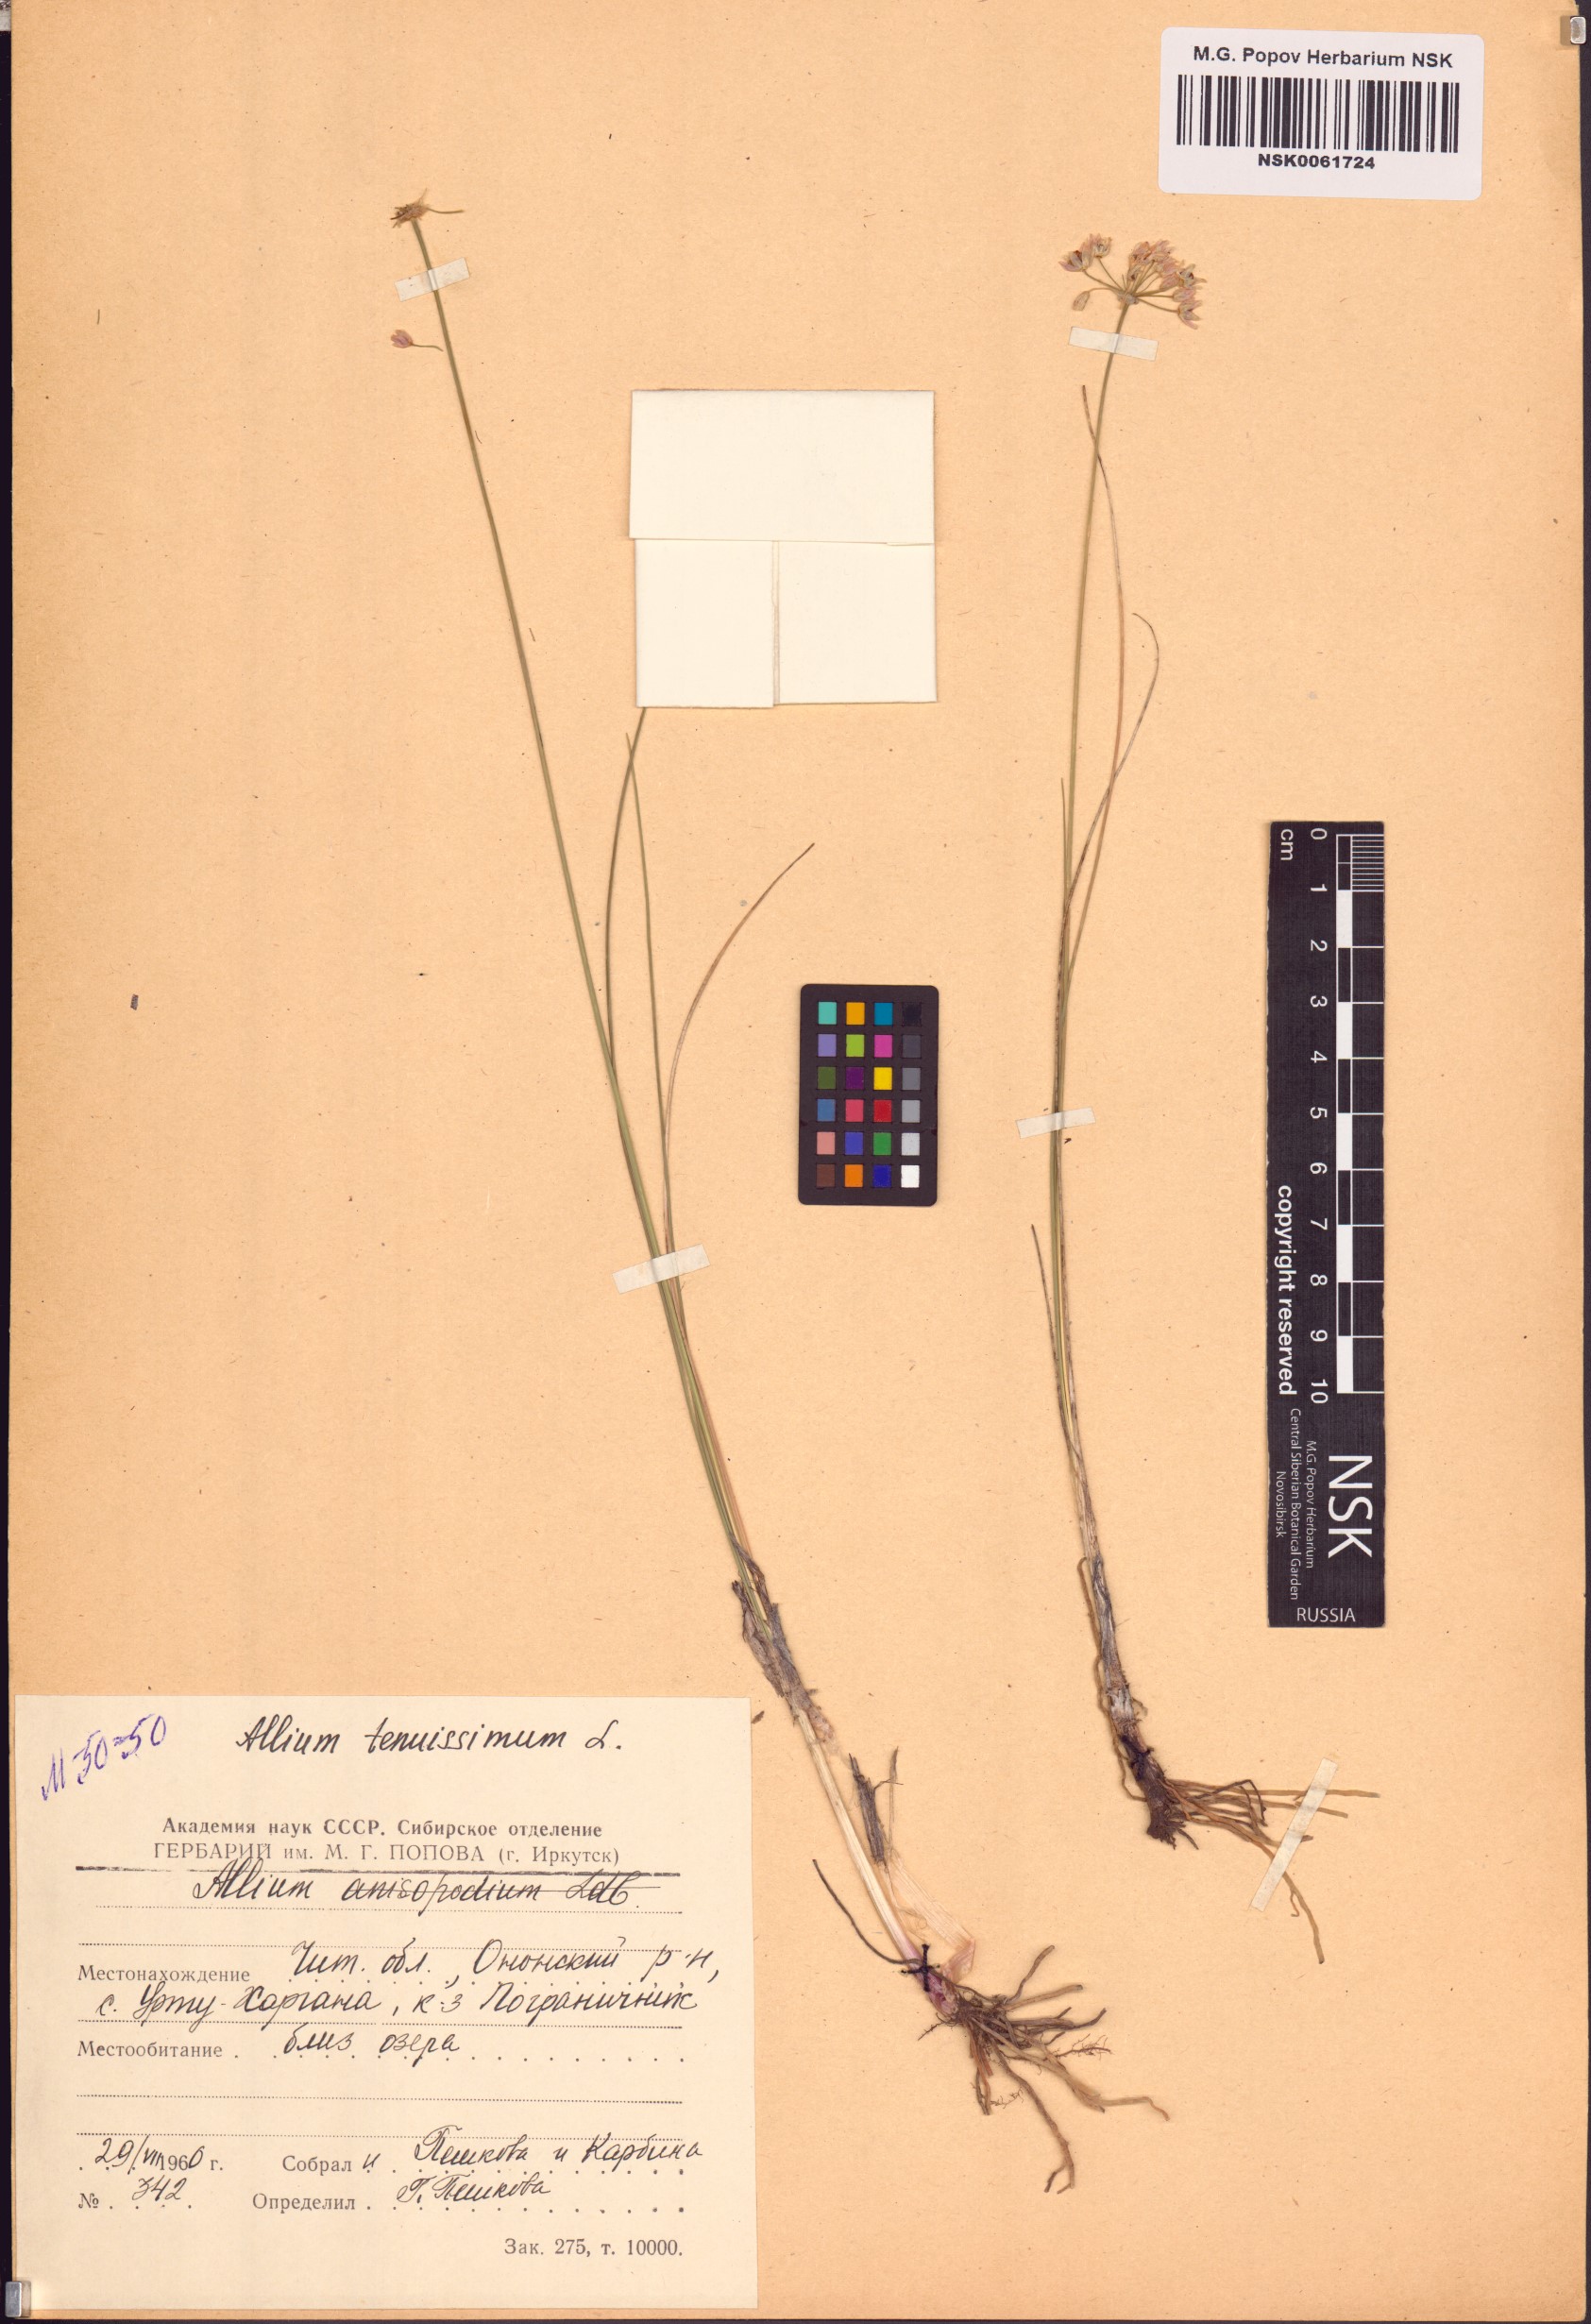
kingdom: Plantae
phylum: Tracheophyta
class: Liliopsida
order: Asparagales
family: Amaryllidaceae
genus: Allium
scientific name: Allium tenuissimum
